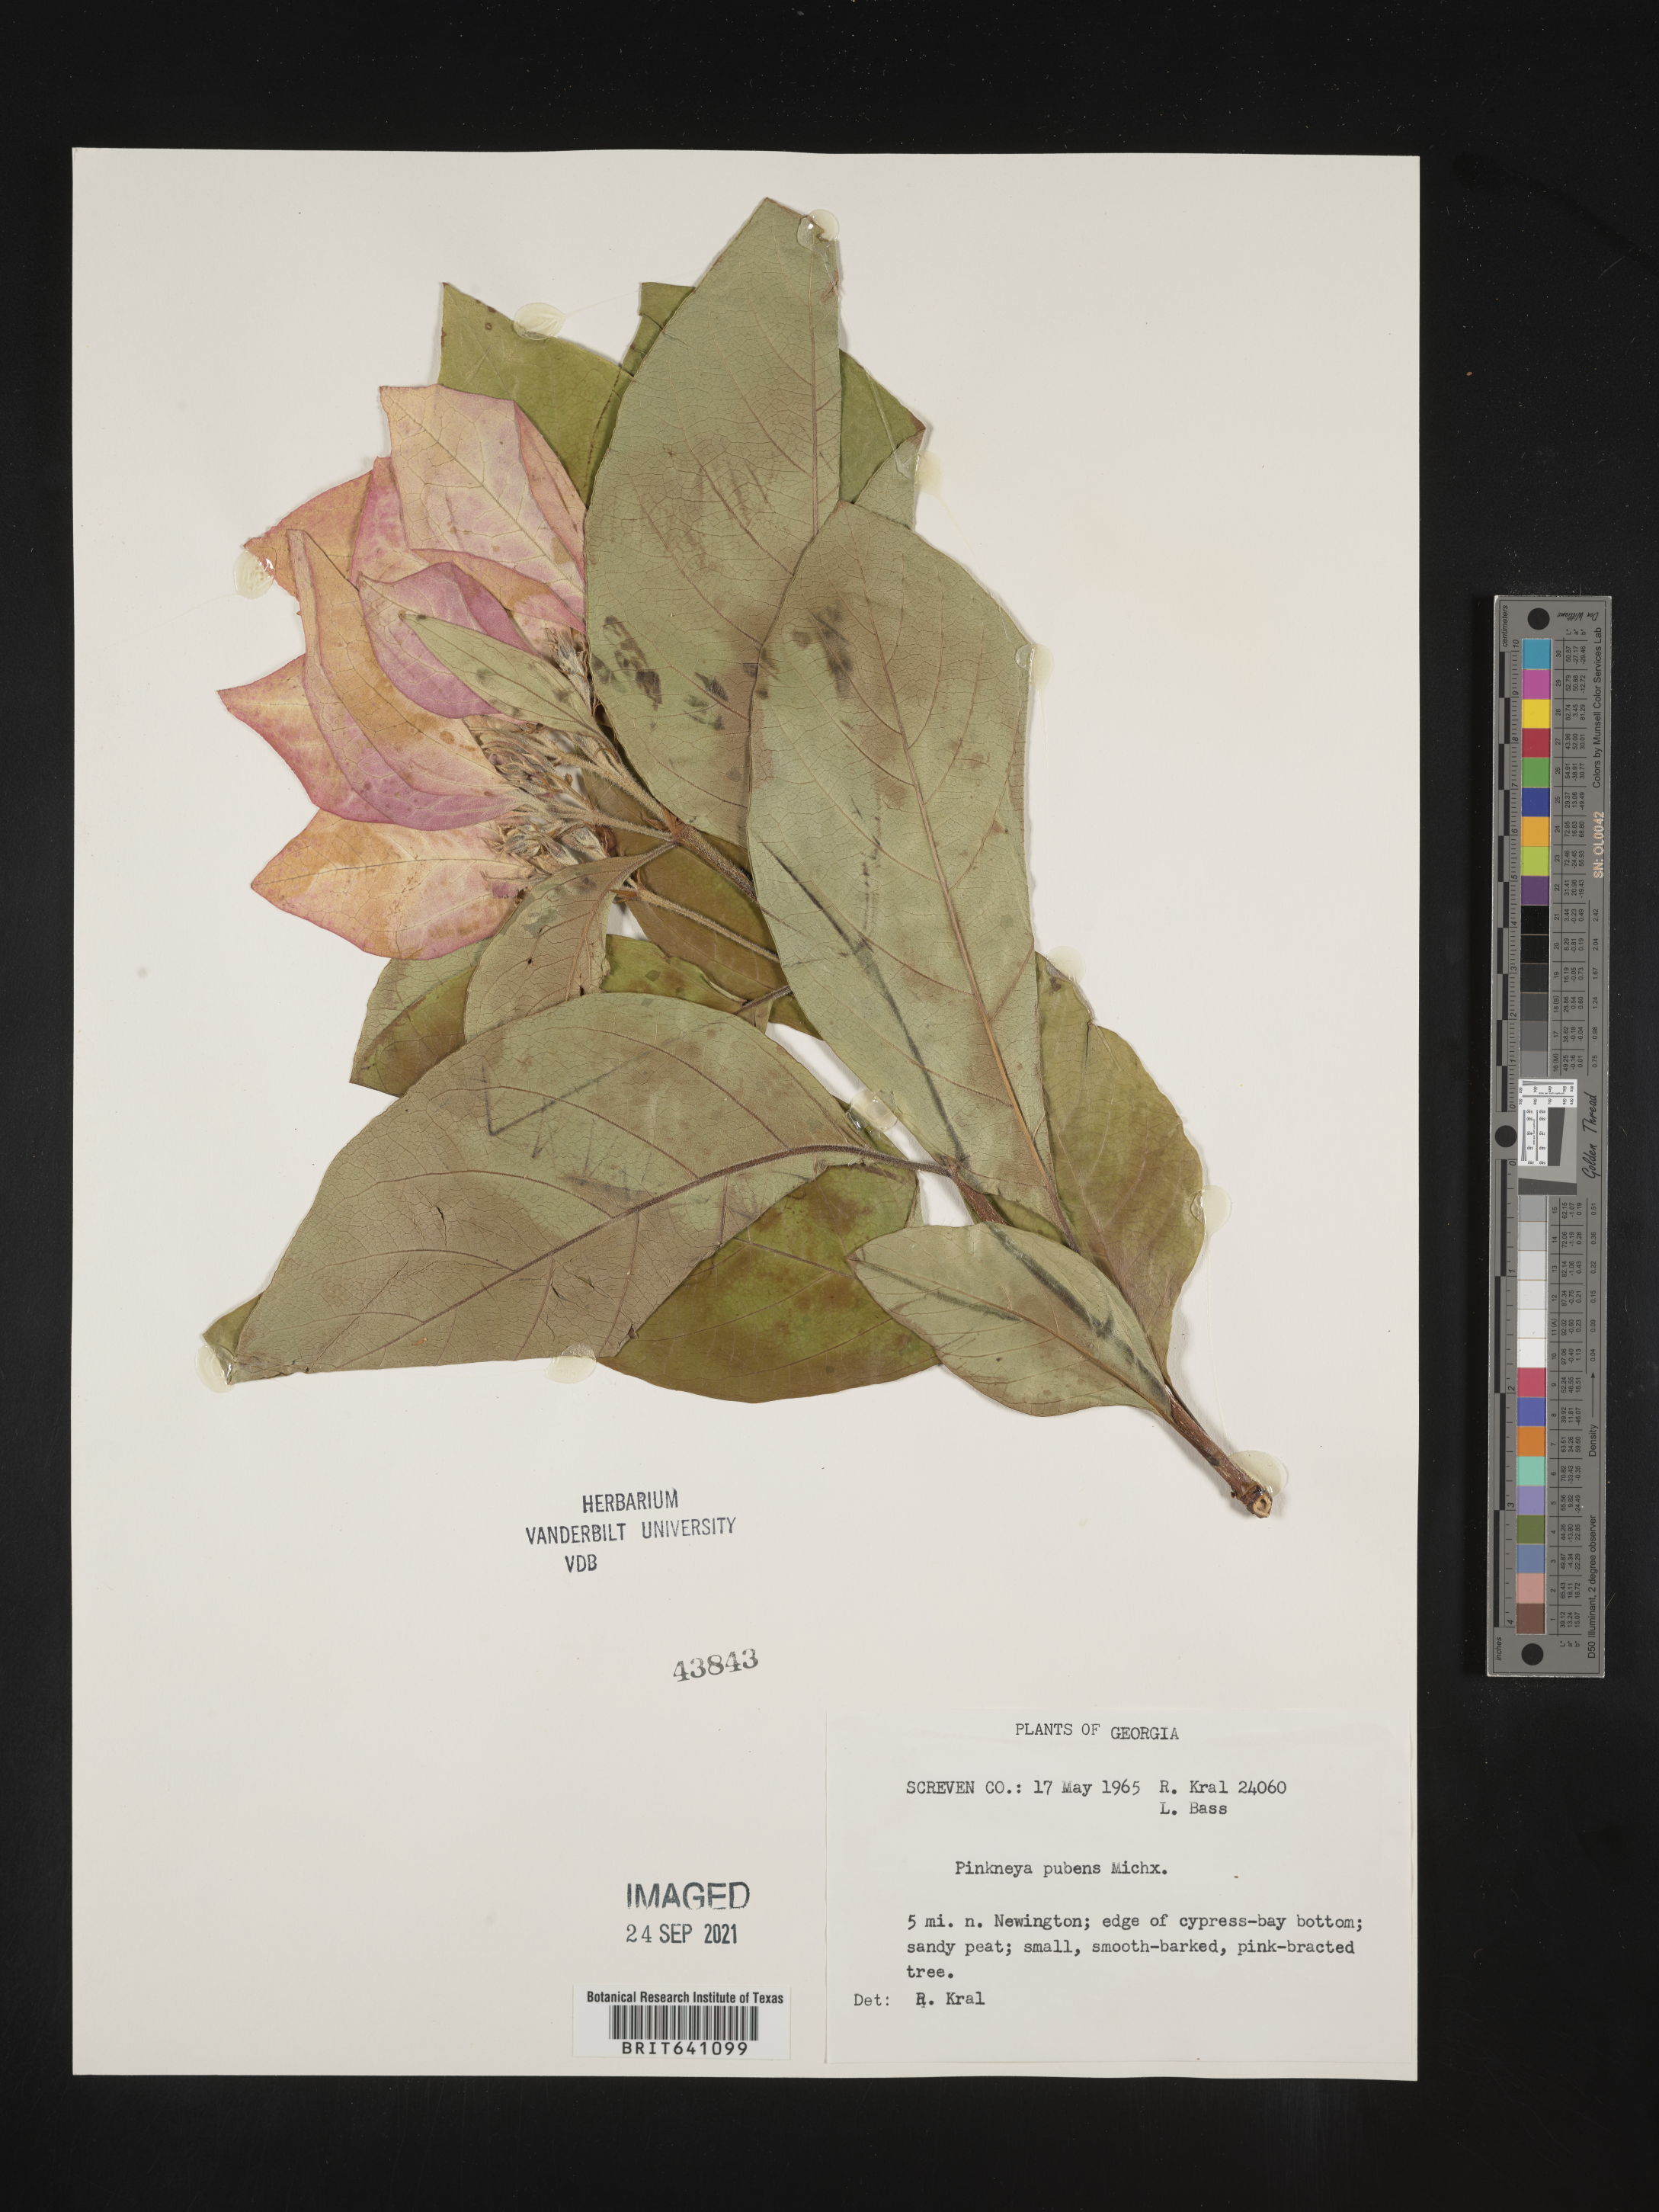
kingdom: Plantae
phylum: Tracheophyta
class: Magnoliopsida
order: Gentianales
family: Rubiaceae
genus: Pinckneya
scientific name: Pinckneya pubens
